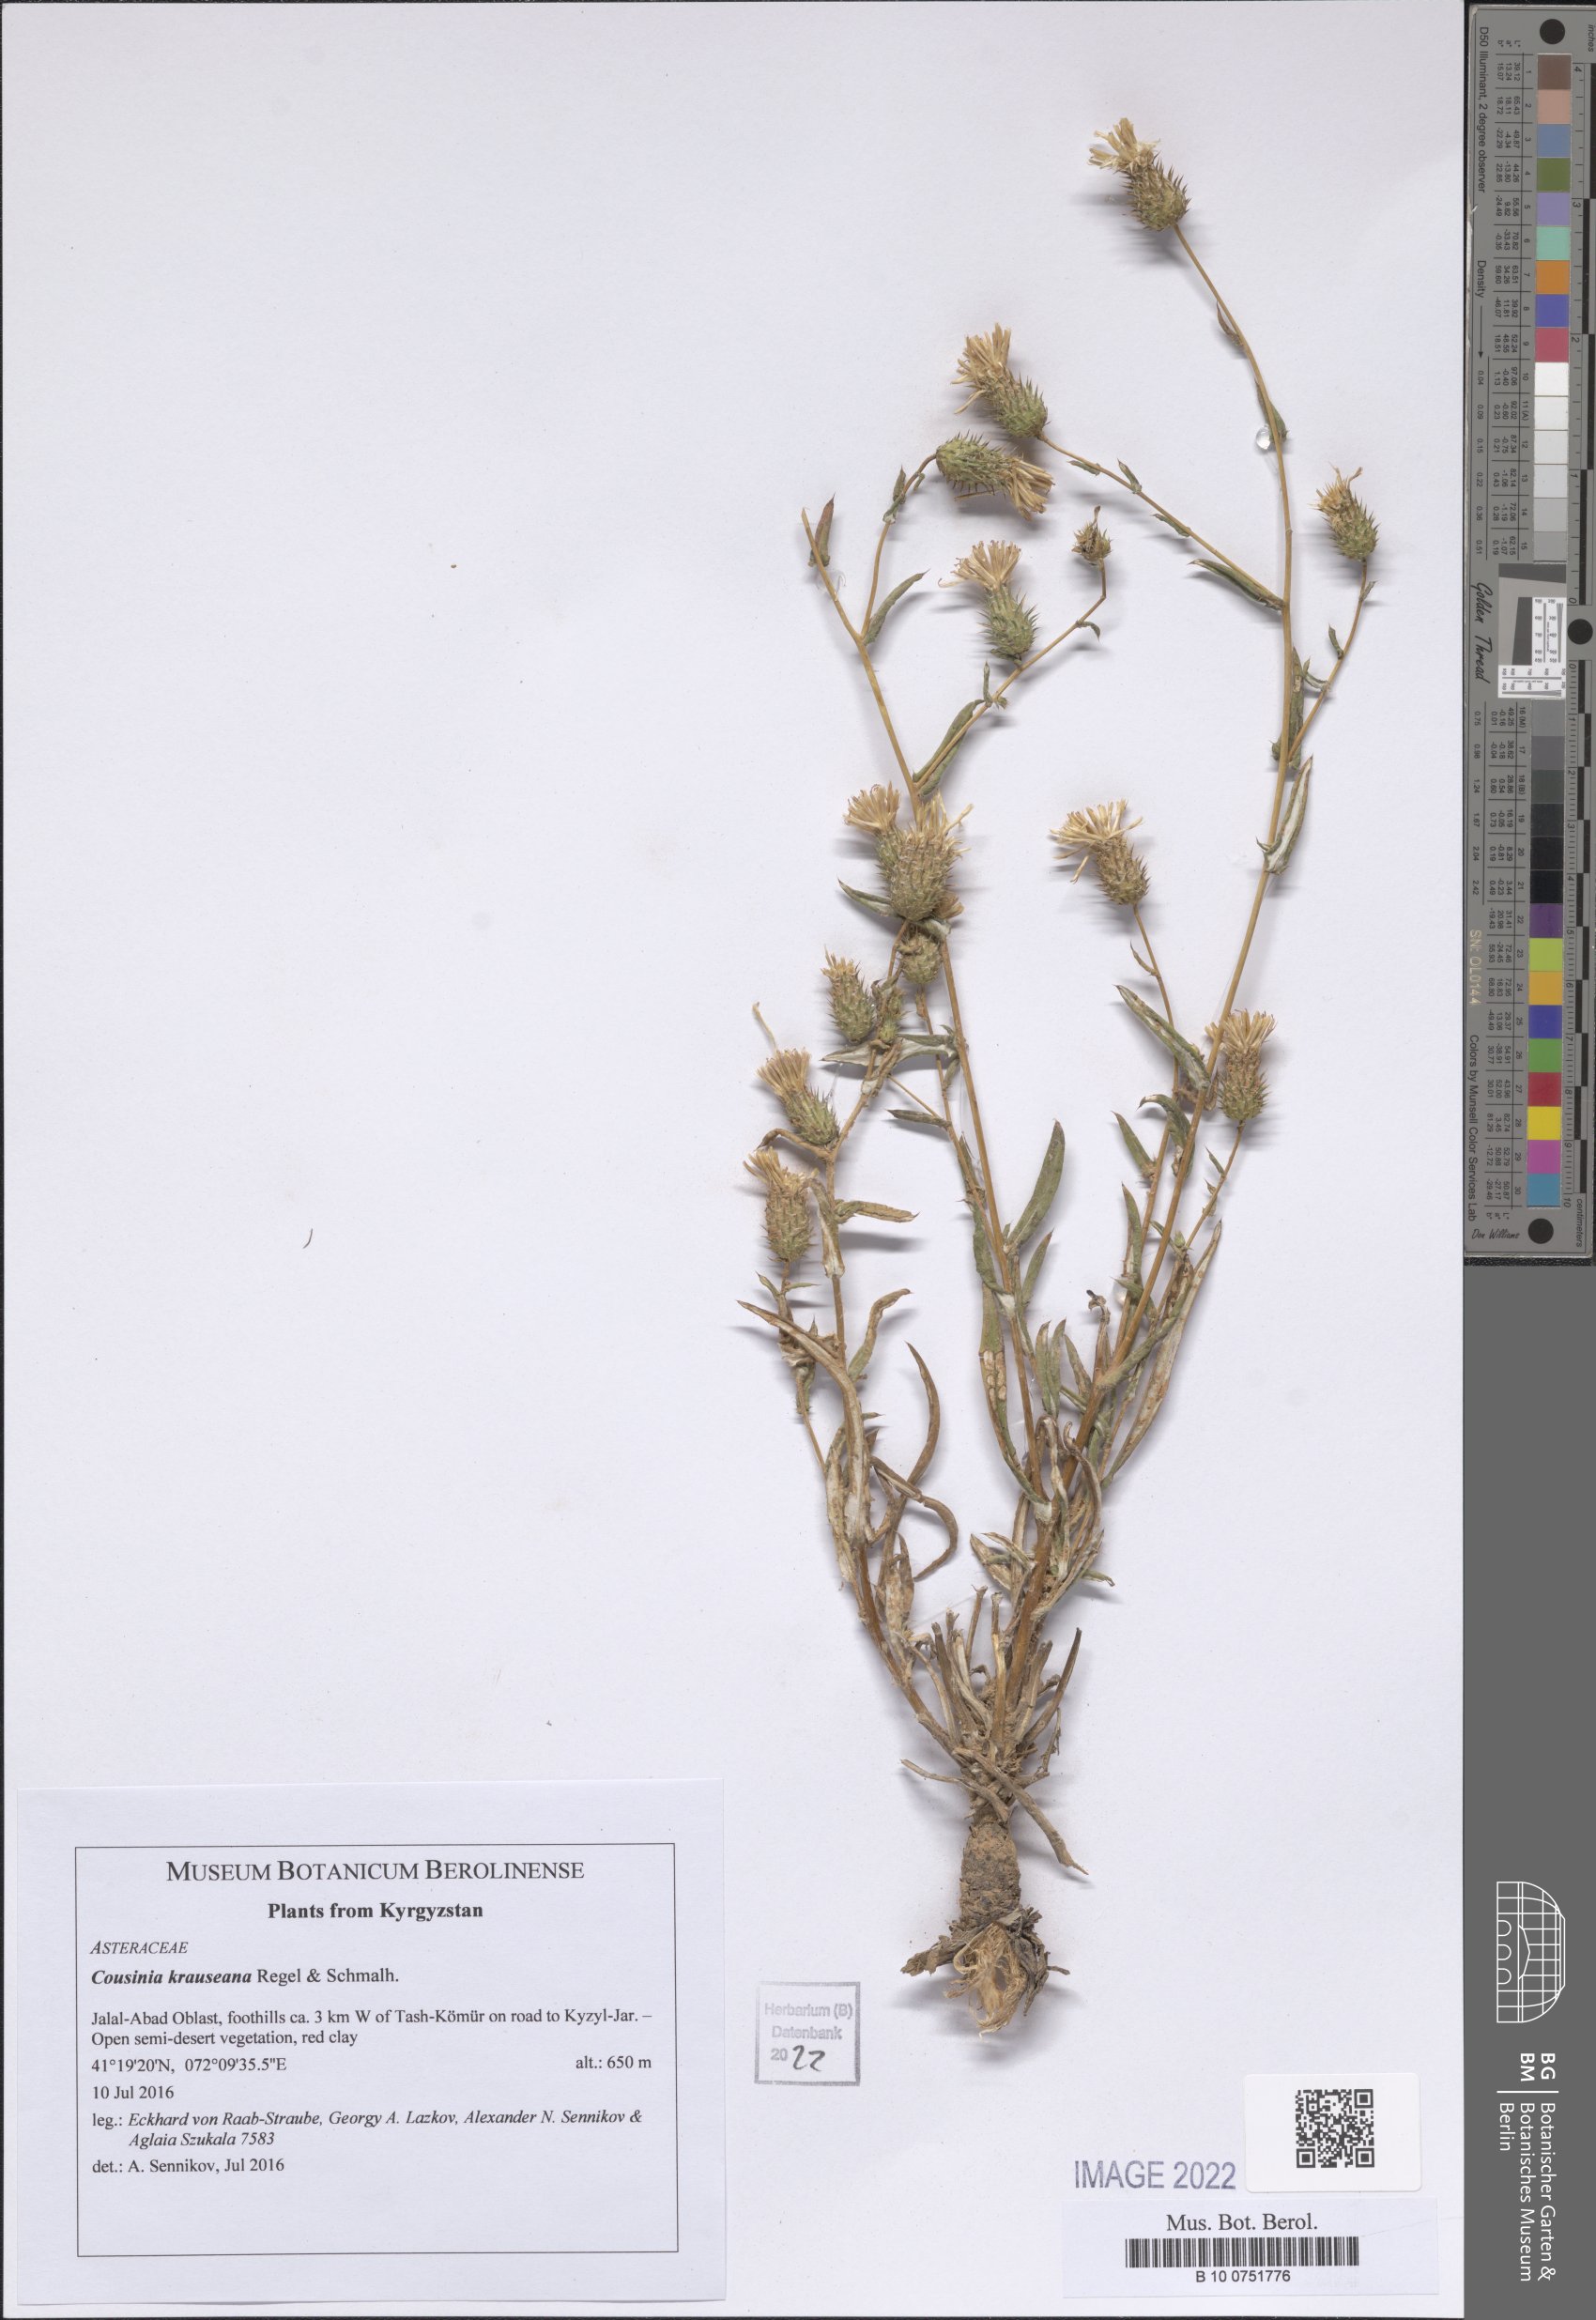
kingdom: Plantae
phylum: Tracheophyta
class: Magnoliopsida
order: Asterales
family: Asteraceae
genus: Cousinia
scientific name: Cousinia krauseana
